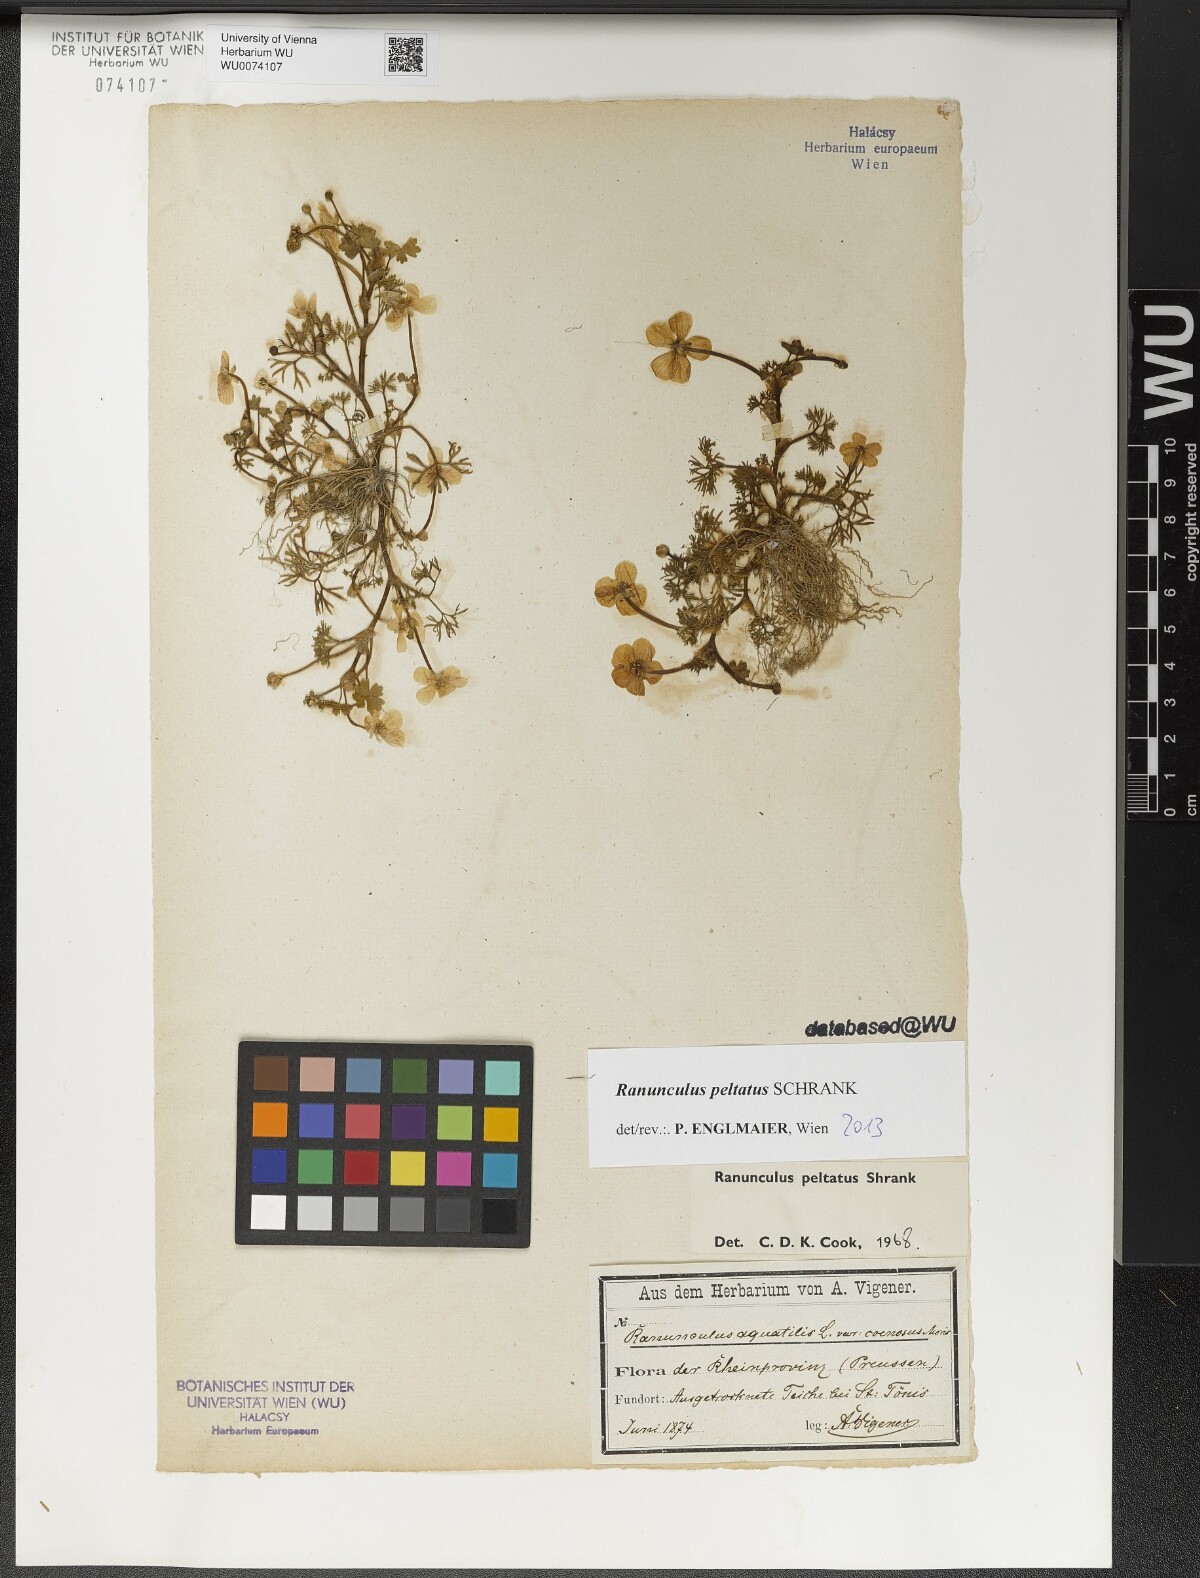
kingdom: Plantae
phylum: Tracheophyta
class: Magnoliopsida
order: Ranunculales
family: Ranunculaceae
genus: Ranunculus
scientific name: Ranunculus peltatus
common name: Pond water-crowfoot
